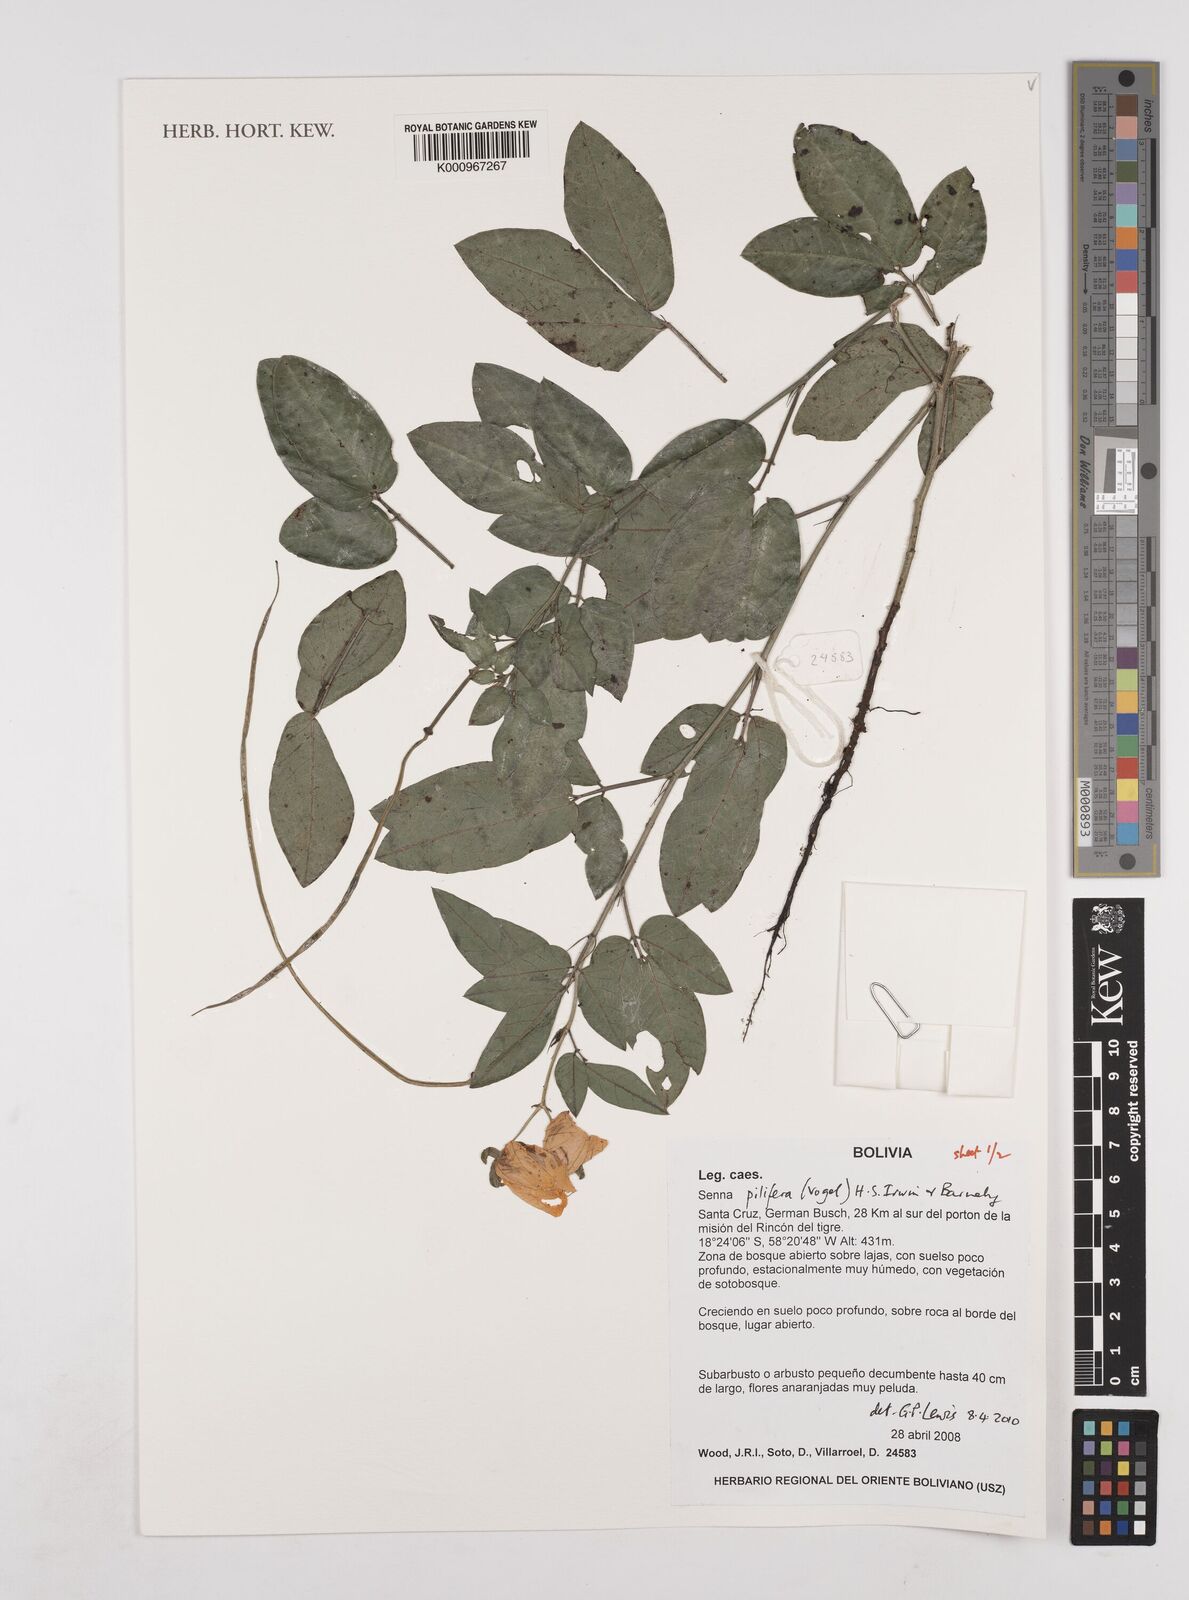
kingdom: Plantae
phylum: Tracheophyta
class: Magnoliopsida
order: Fabales
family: Fabaceae
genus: Senna
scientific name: Senna pilifera
